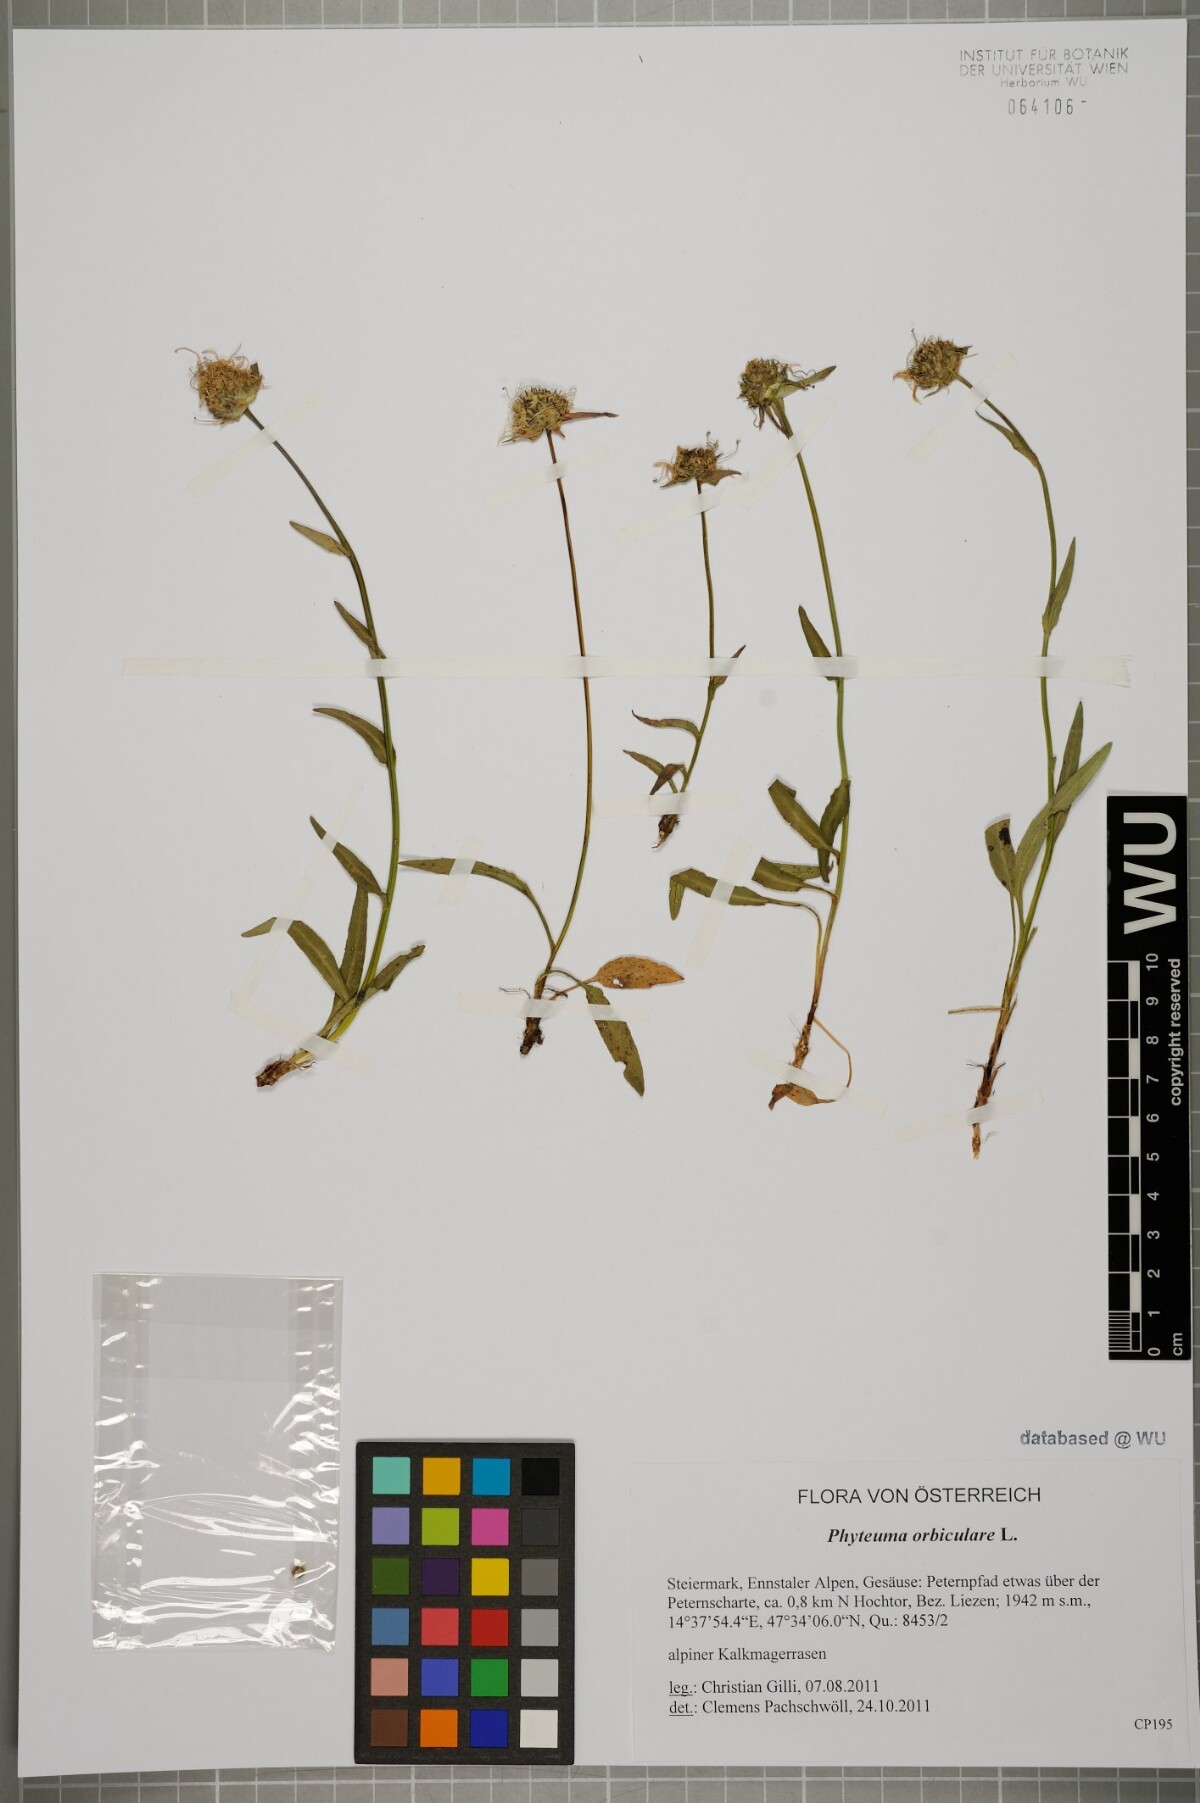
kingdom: Plantae
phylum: Tracheophyta
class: Magnoliopsida
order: Asterales
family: Campanulaceae
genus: Phyteuma
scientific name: Phyteuma orbiculare
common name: Round-headed rampion
